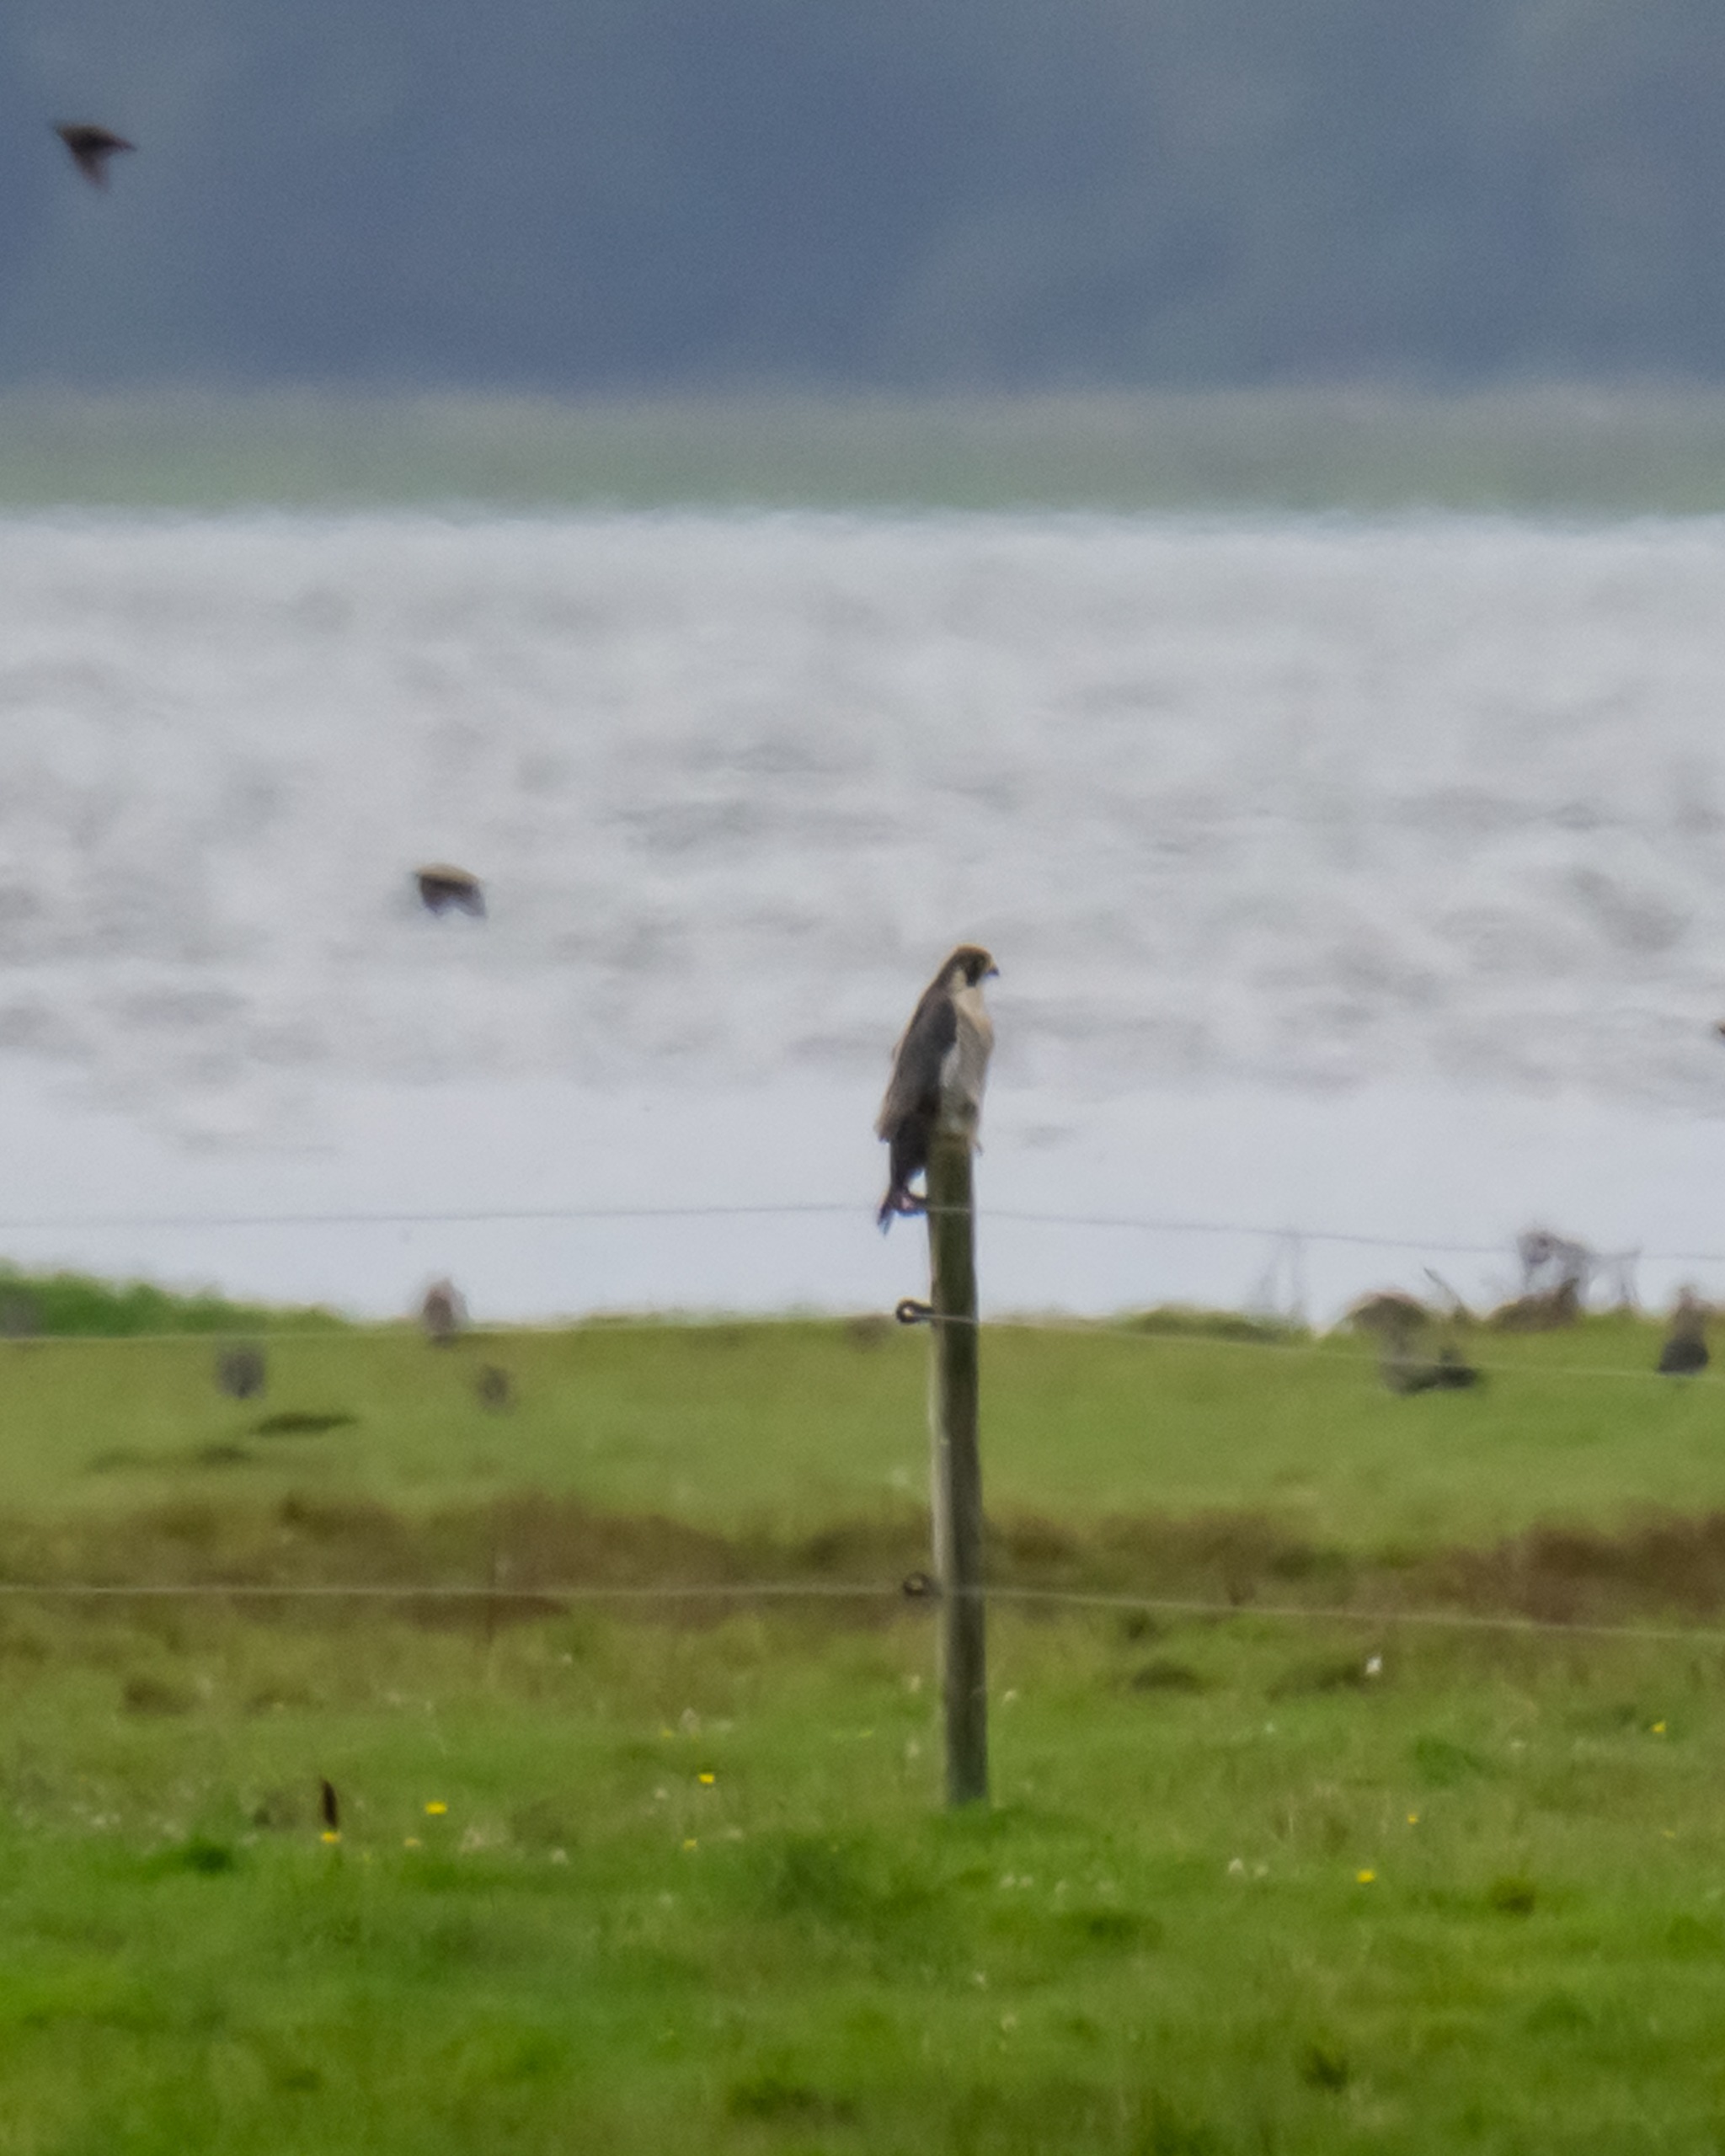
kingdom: Animalia
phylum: Chordata
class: Aves
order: Falconiformes
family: Falconidae
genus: Falco
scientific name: Falco peregrinus
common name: Vandrefalk
